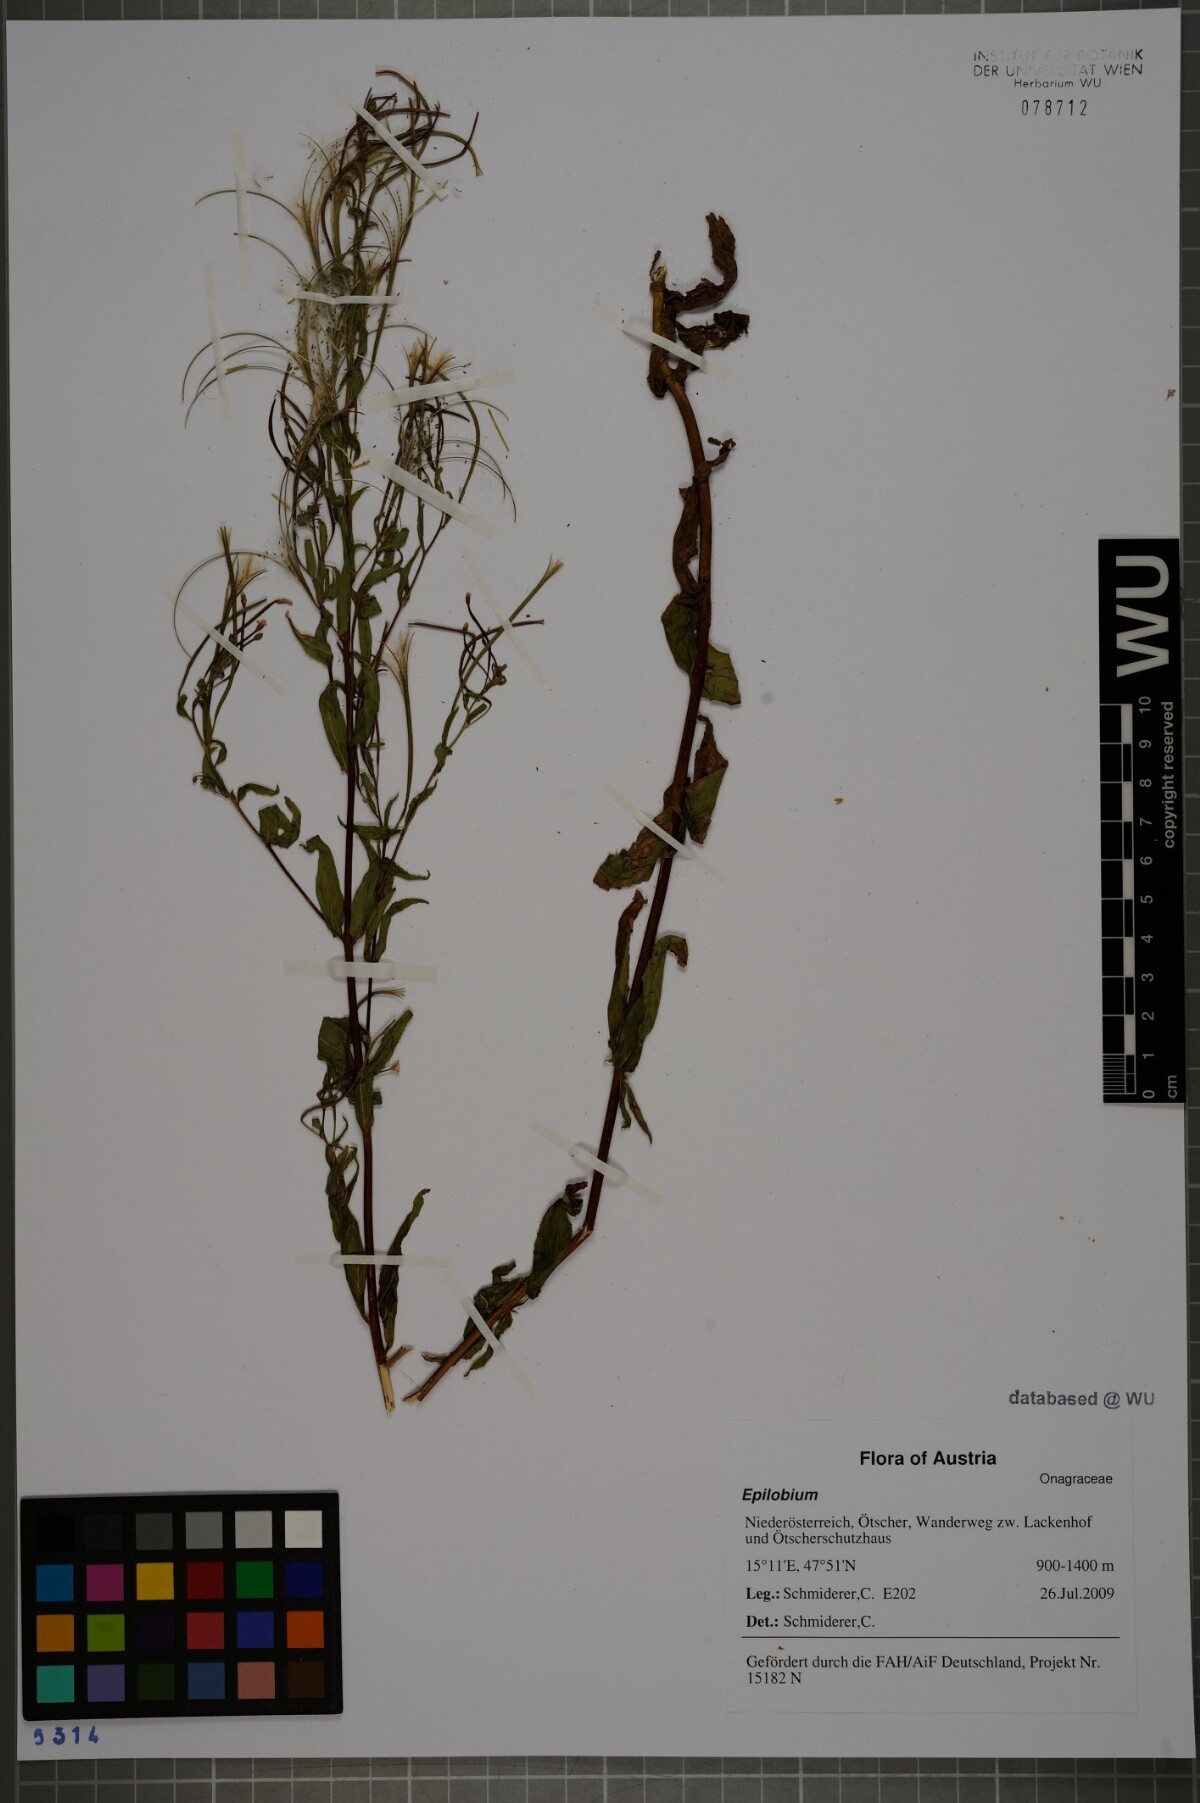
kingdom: Plantae
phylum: Tracheophyta
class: Magnoliopsida
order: Myrtales
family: Onagraceae
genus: Epilobium
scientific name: Epilobium ciliatum
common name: American willowherb
